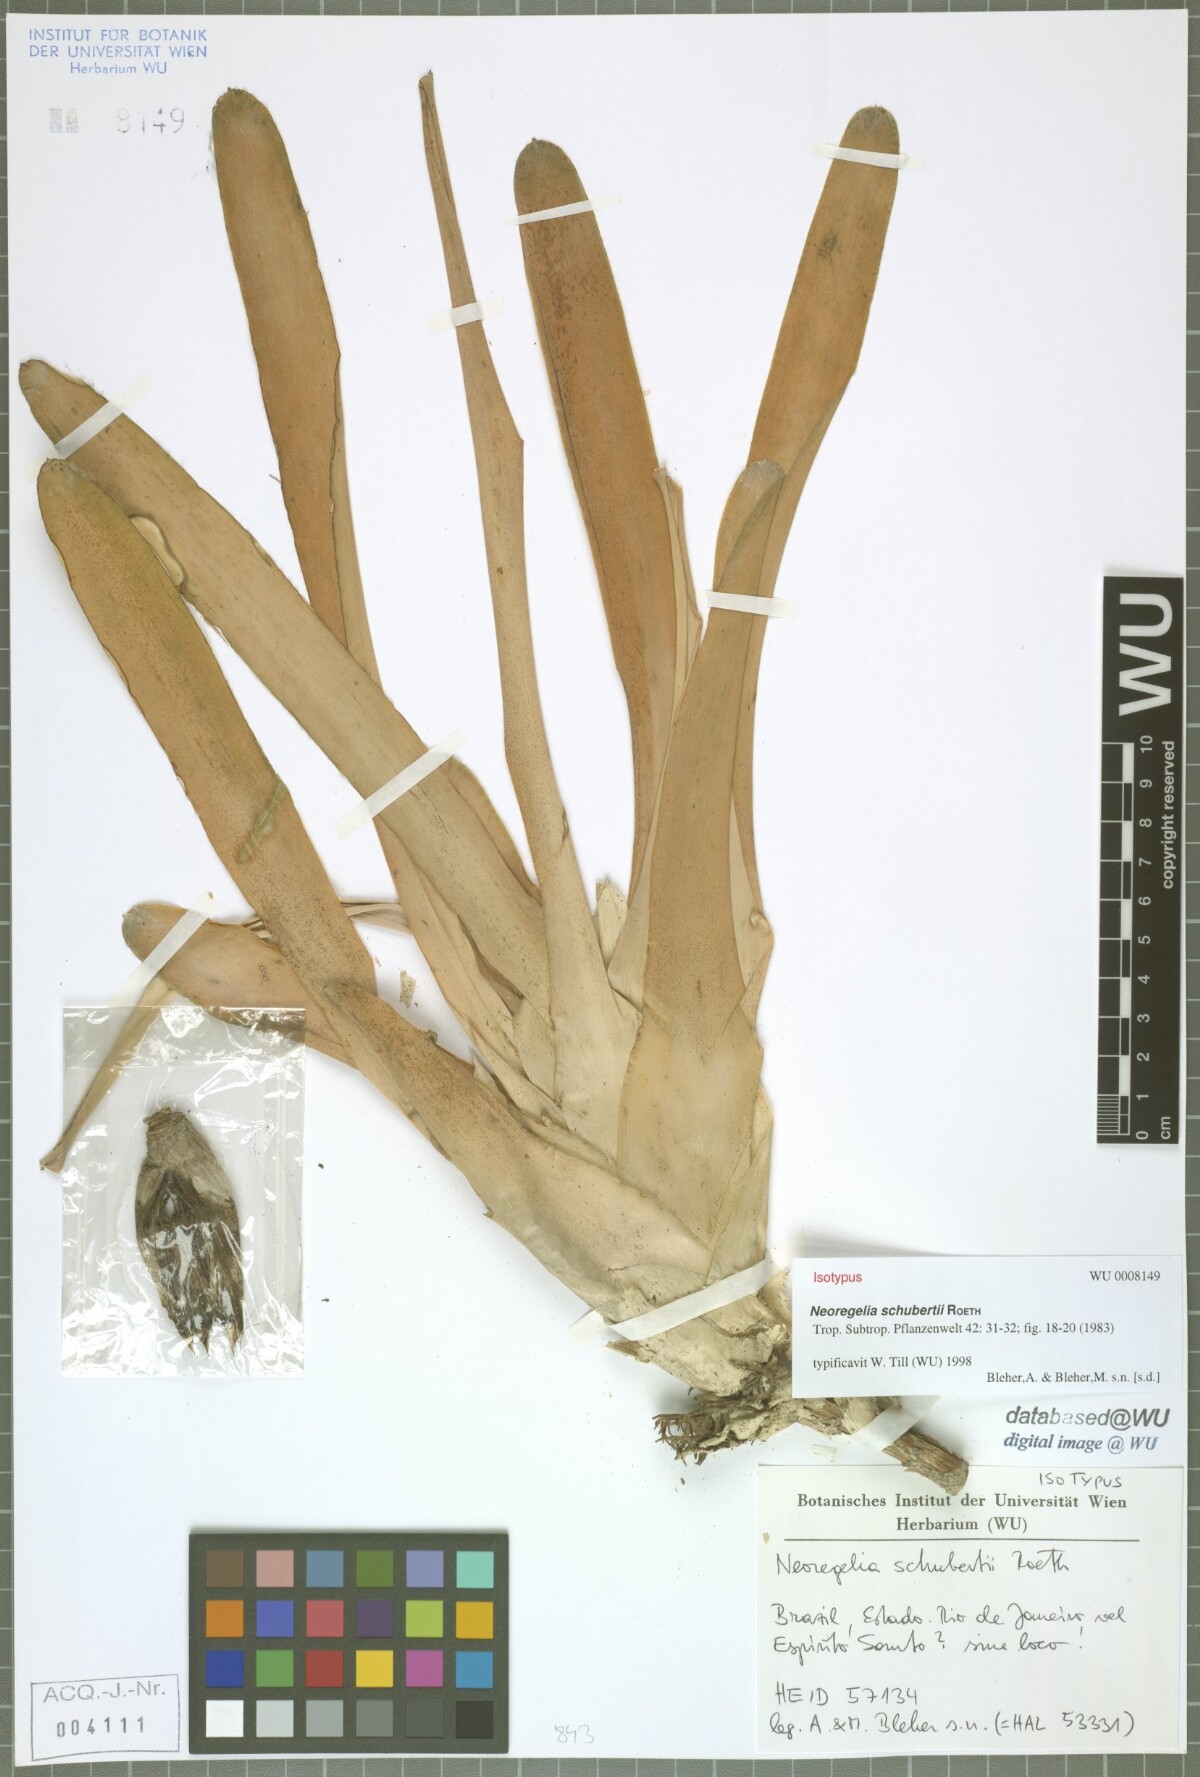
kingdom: Plantae
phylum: Tracheophyta
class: Liliopsida
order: Poales
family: Bromeliaceae
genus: Neoregelia
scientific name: Neoregelia schubertii
